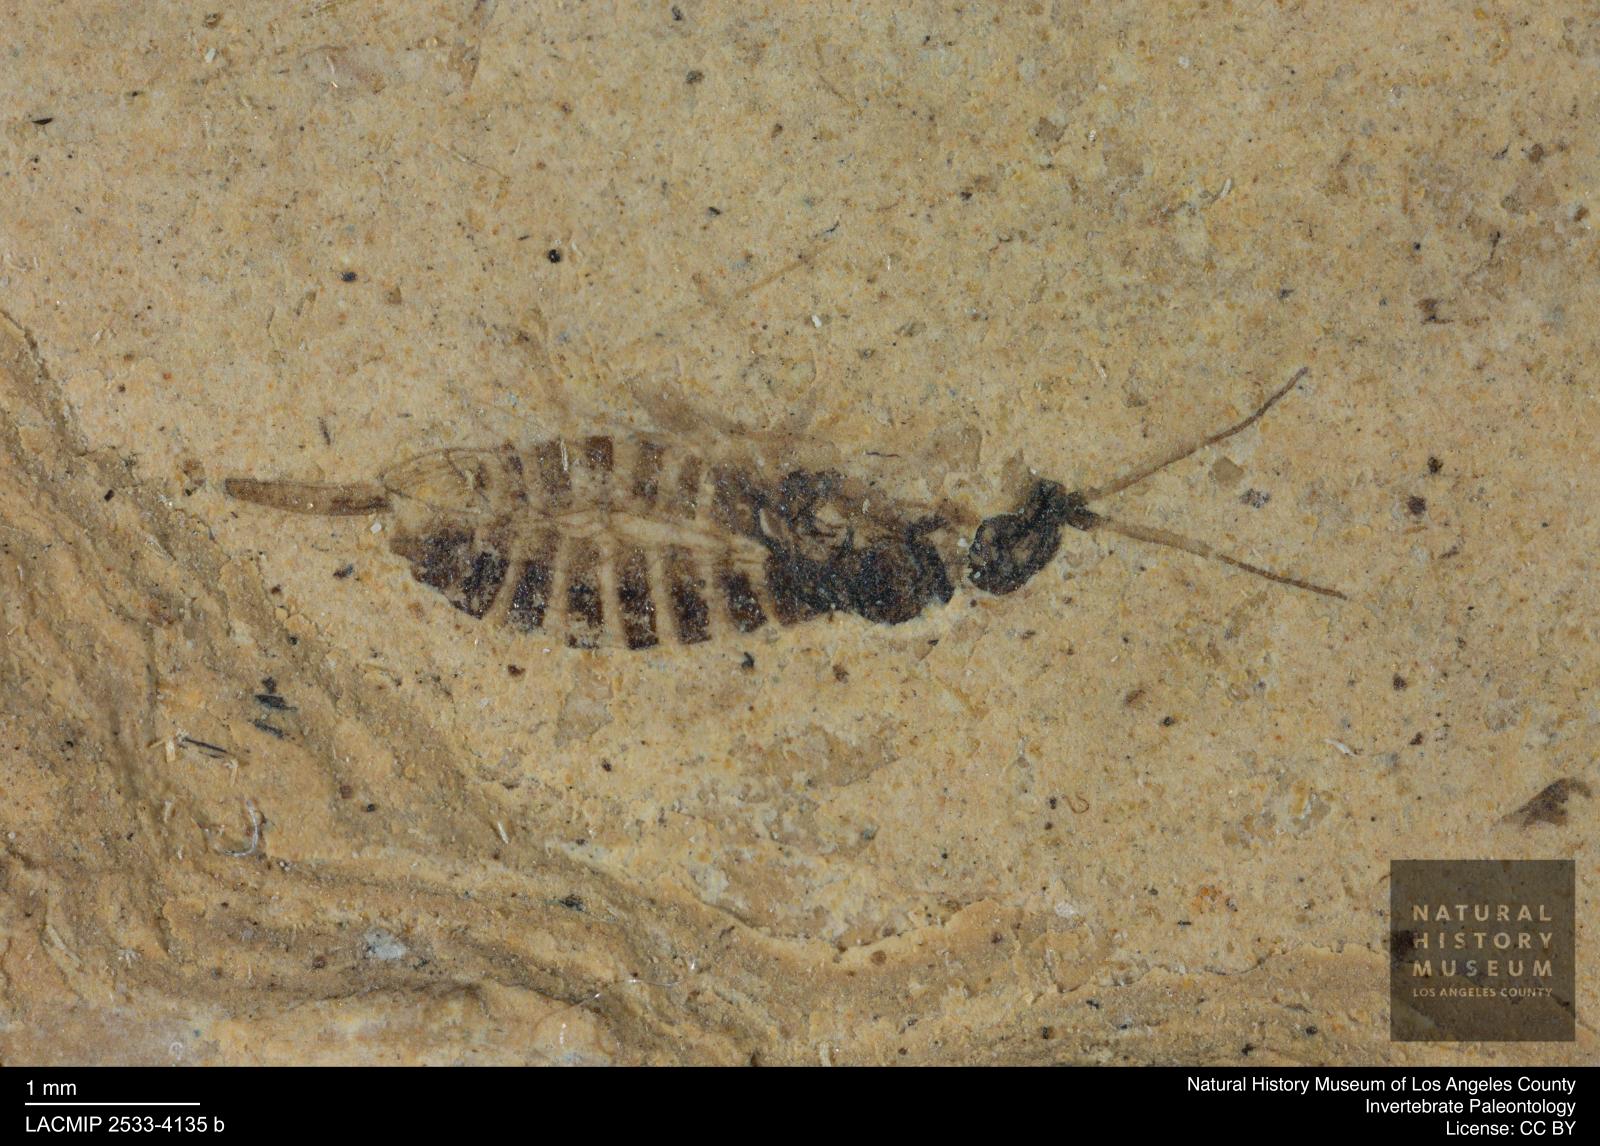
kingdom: Animalia
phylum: Arthropoda
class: Insecta
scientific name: Insecta
